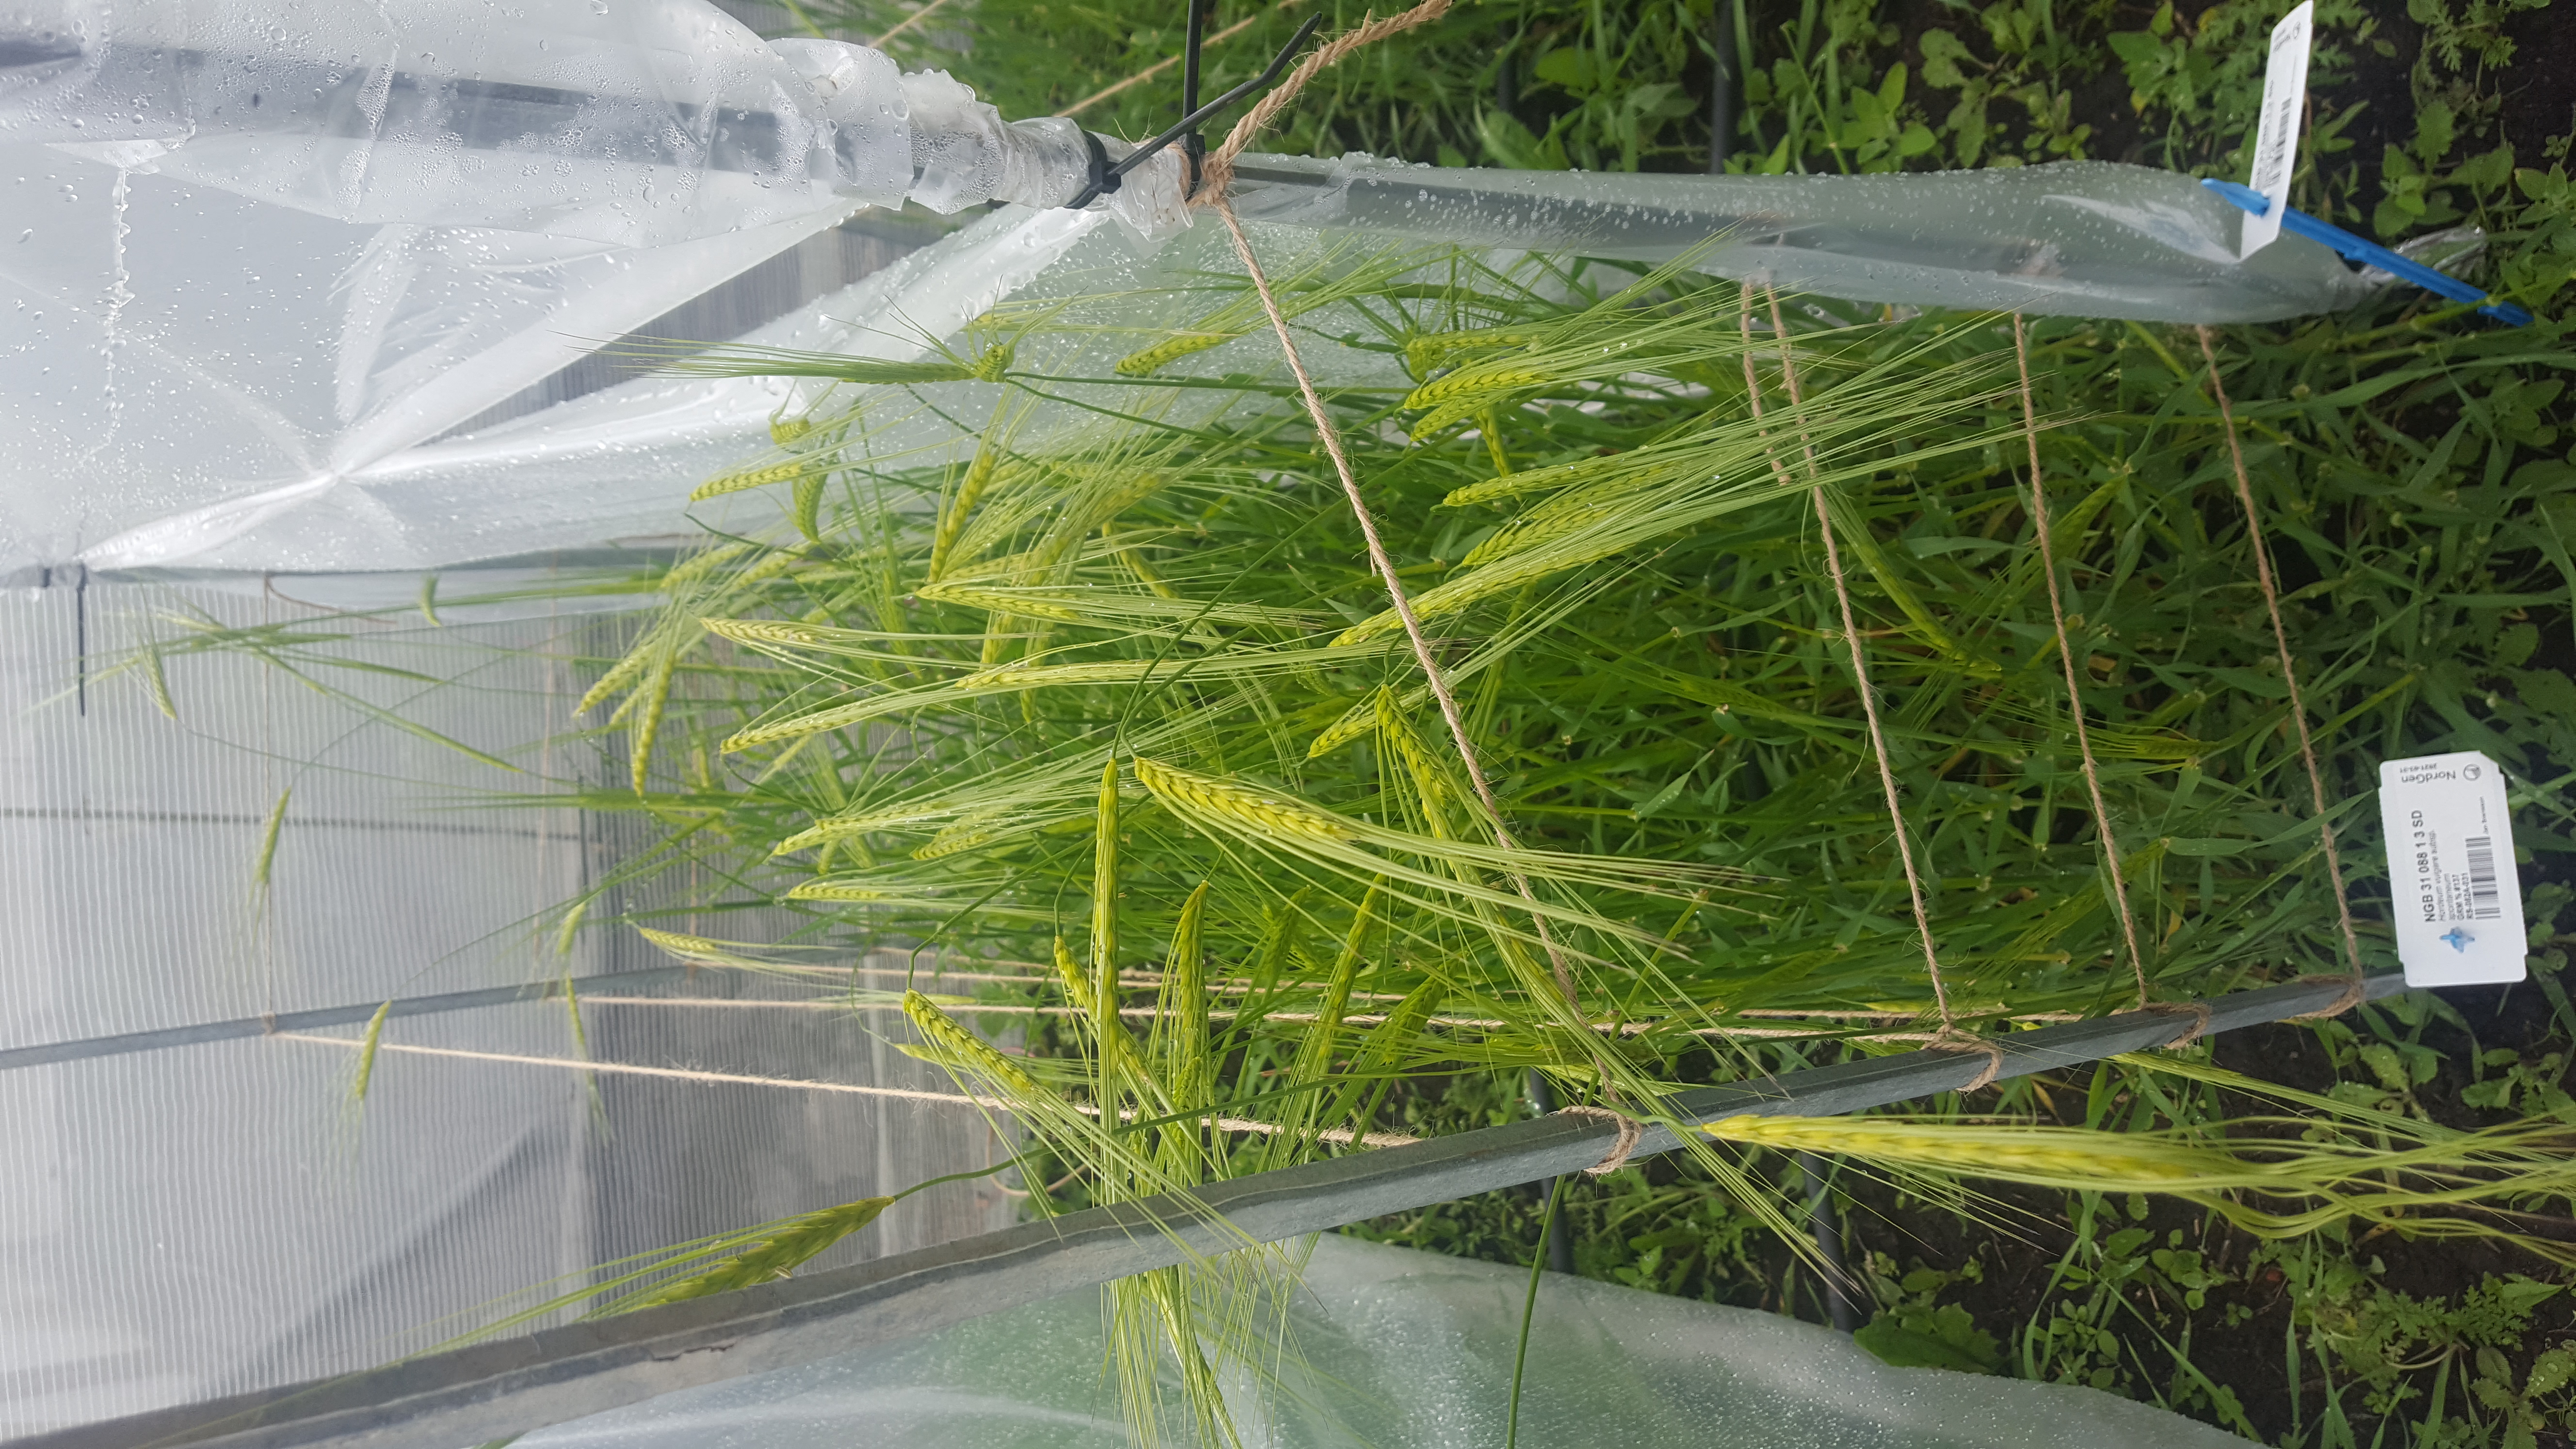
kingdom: Plantae
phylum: Tracheophyta
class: Liliopsida
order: Poales
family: Poaceae
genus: Hordeum
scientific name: Hordeum spontaneum
